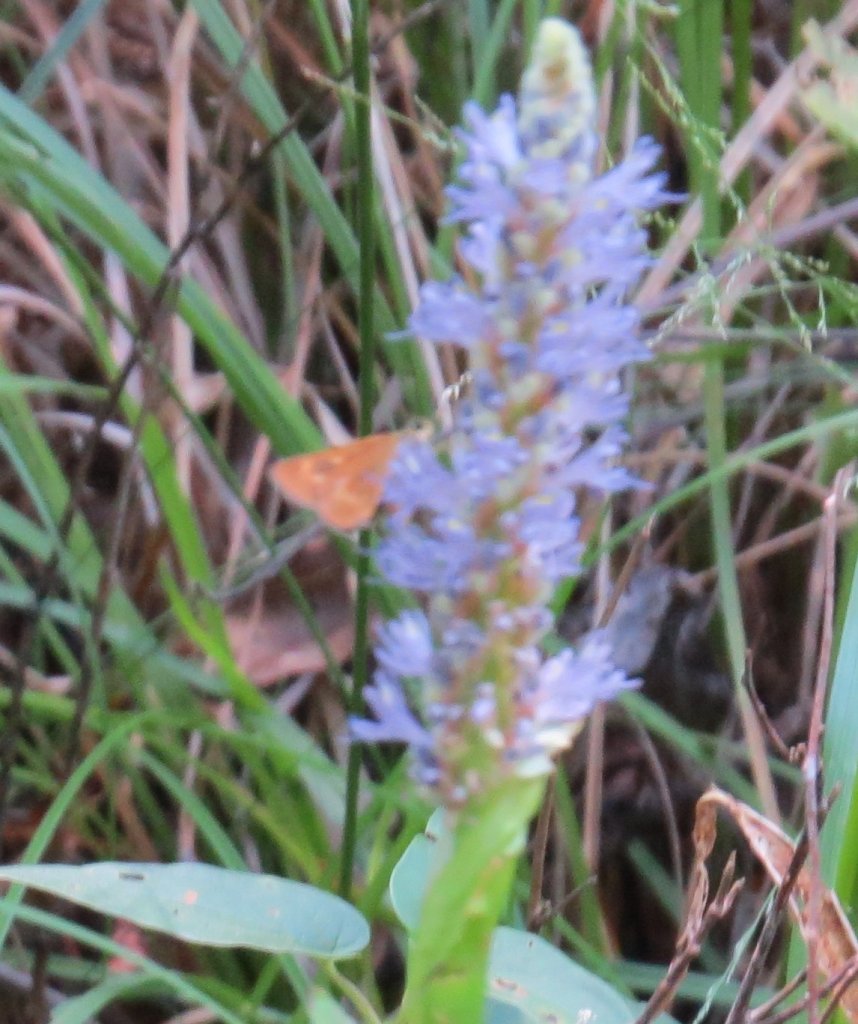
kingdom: Animalia
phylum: Arthropoda
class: Insecta
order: Lepidoptera
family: Hesperiidae
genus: Problema
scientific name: Problema byssus
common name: Byssus Skipper
